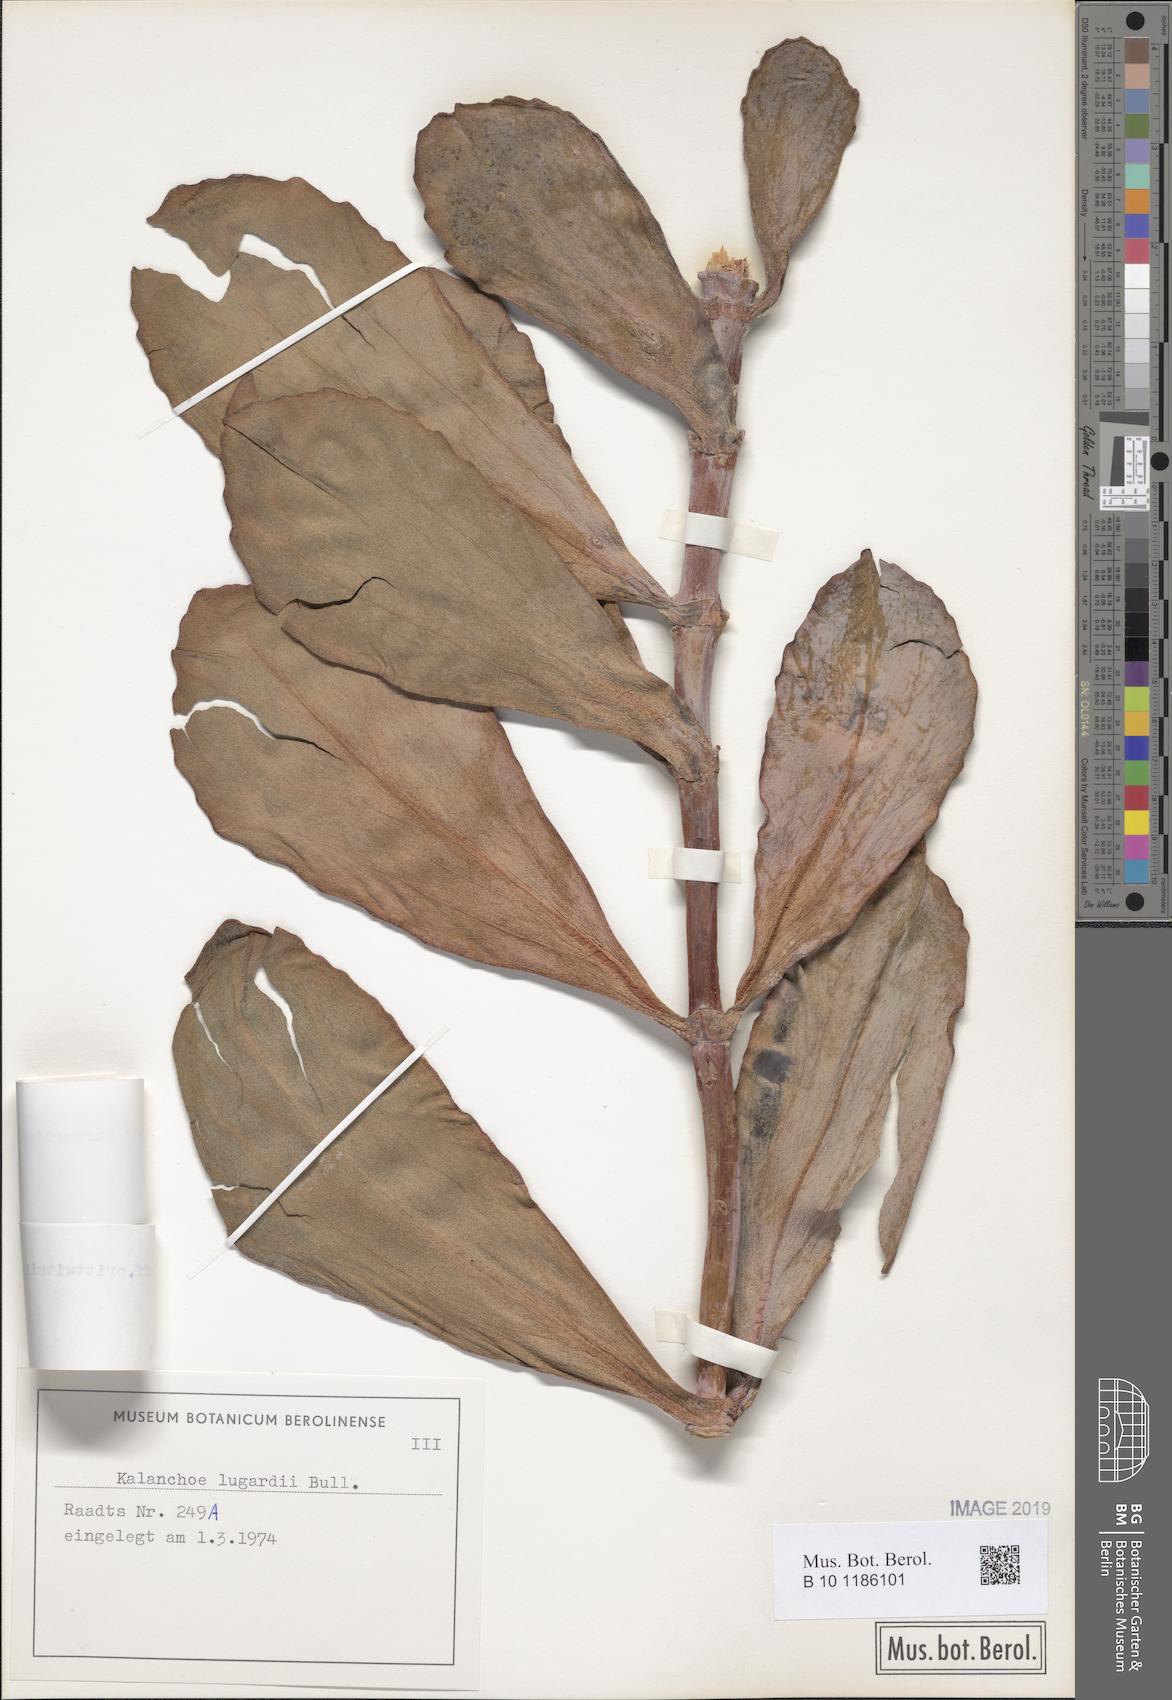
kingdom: Plantae
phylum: Tracheophyta
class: Magnoliopsida
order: Saxifragales
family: Crassulaceae
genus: Kalanchoe
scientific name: Kalanchoe marmorata
